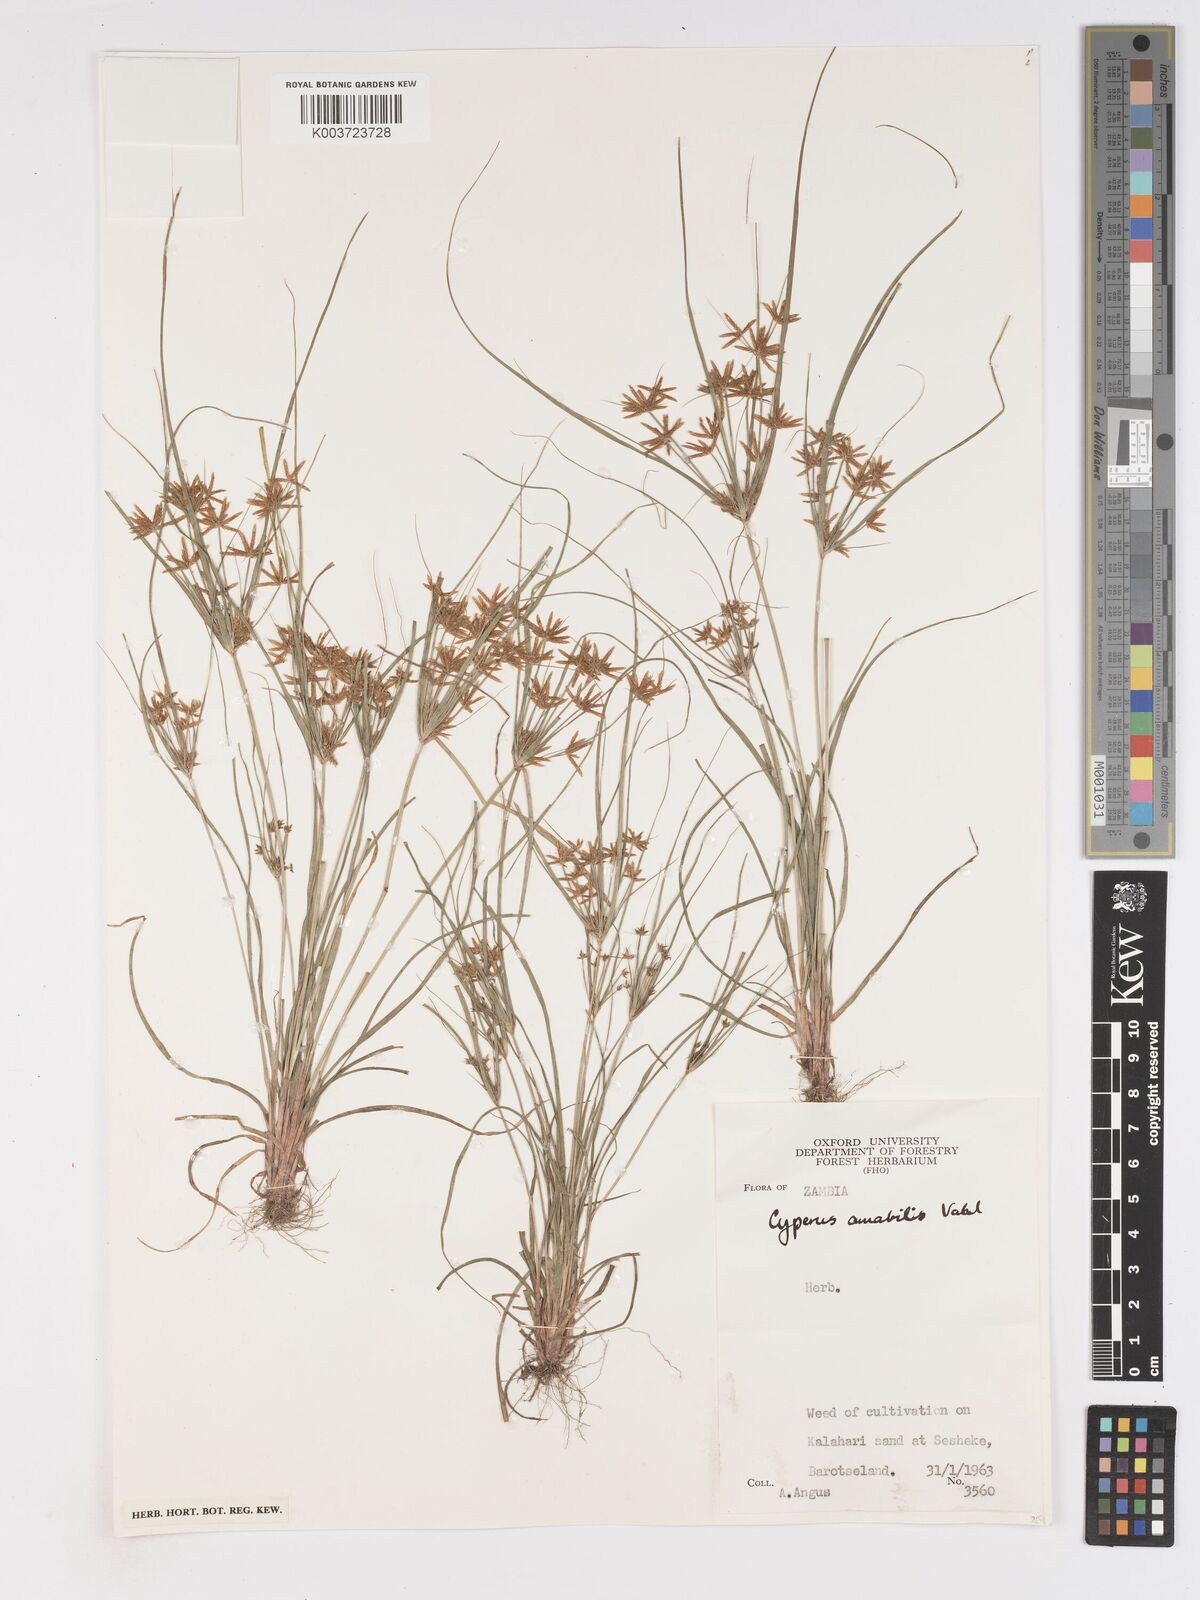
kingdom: Plantae
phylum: Tracheophyta
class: Liliopsida
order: Poales
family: Cyperaceae
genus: Cyperus
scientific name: Cyperus amabilis
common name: Foothill flat sedge
